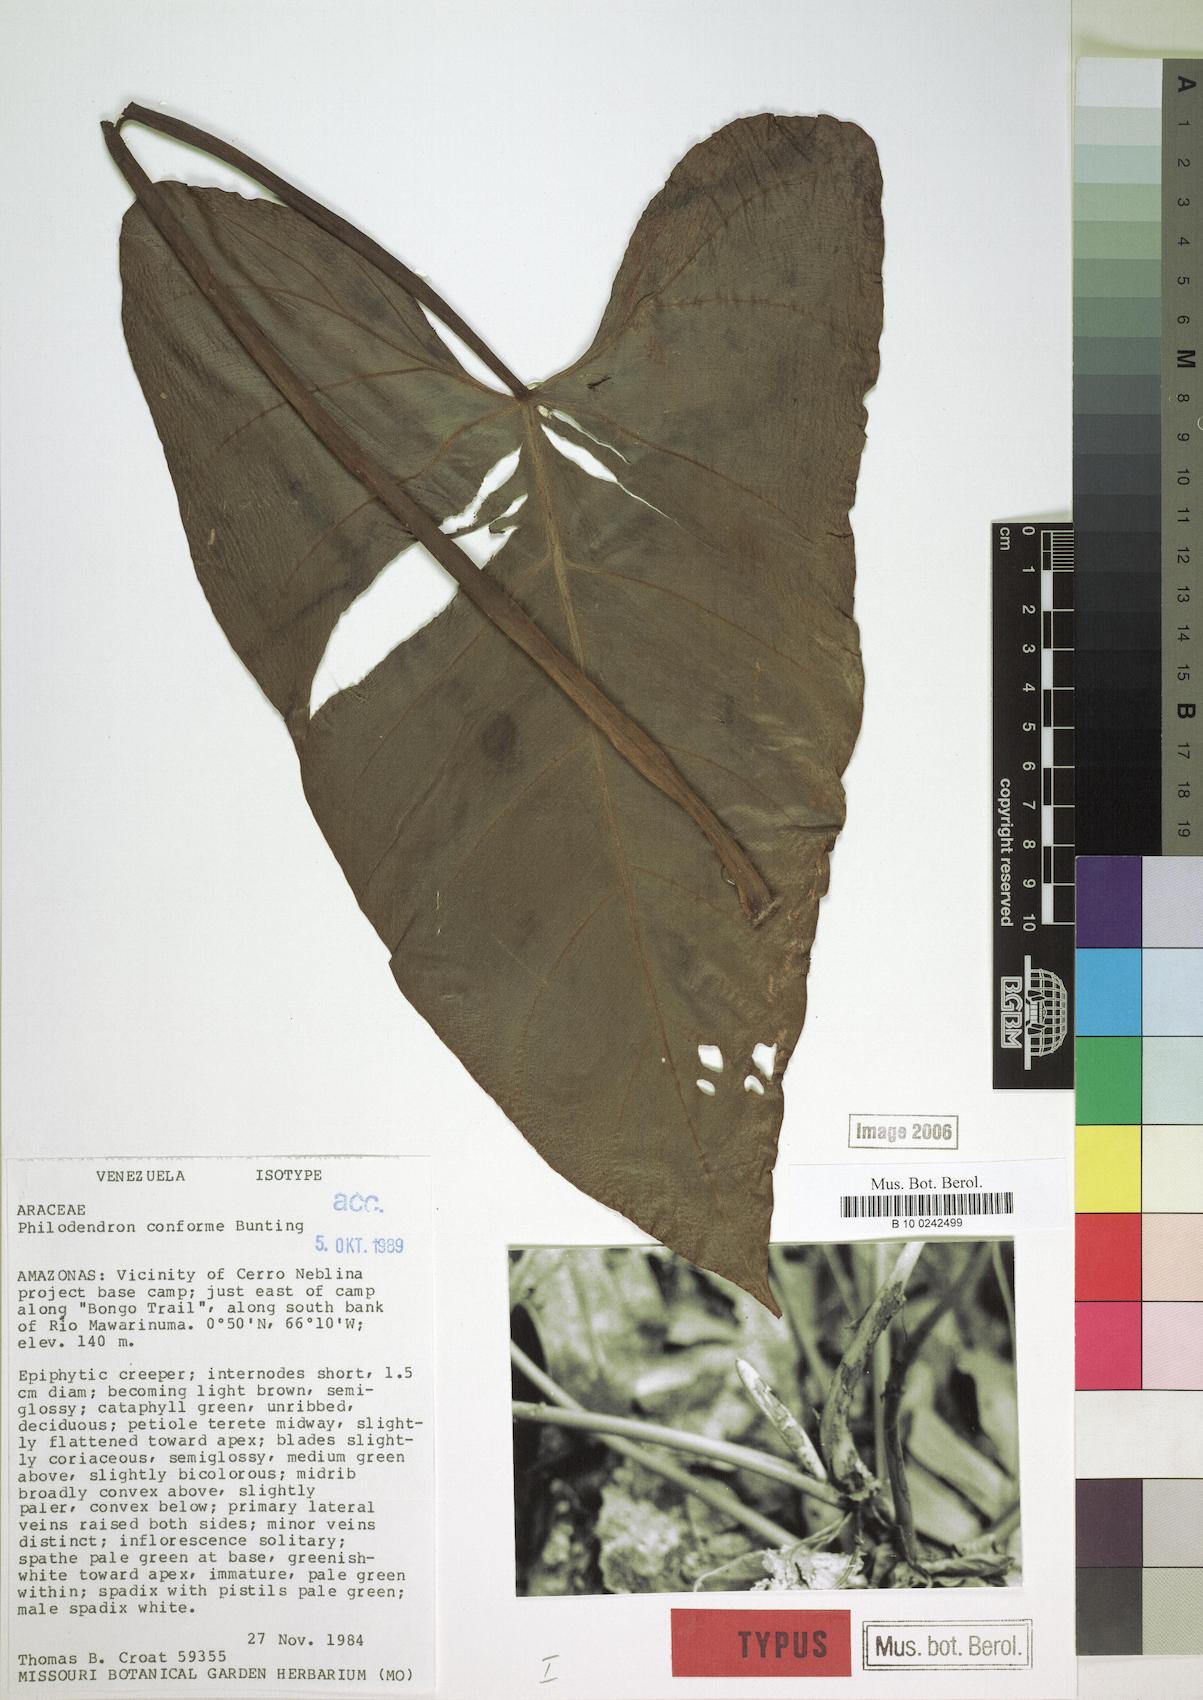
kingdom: Plantae
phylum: Tracheophyta
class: Liliopsida
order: Alismatales
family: Araceae
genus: Philodendron
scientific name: Philodendron conforme
